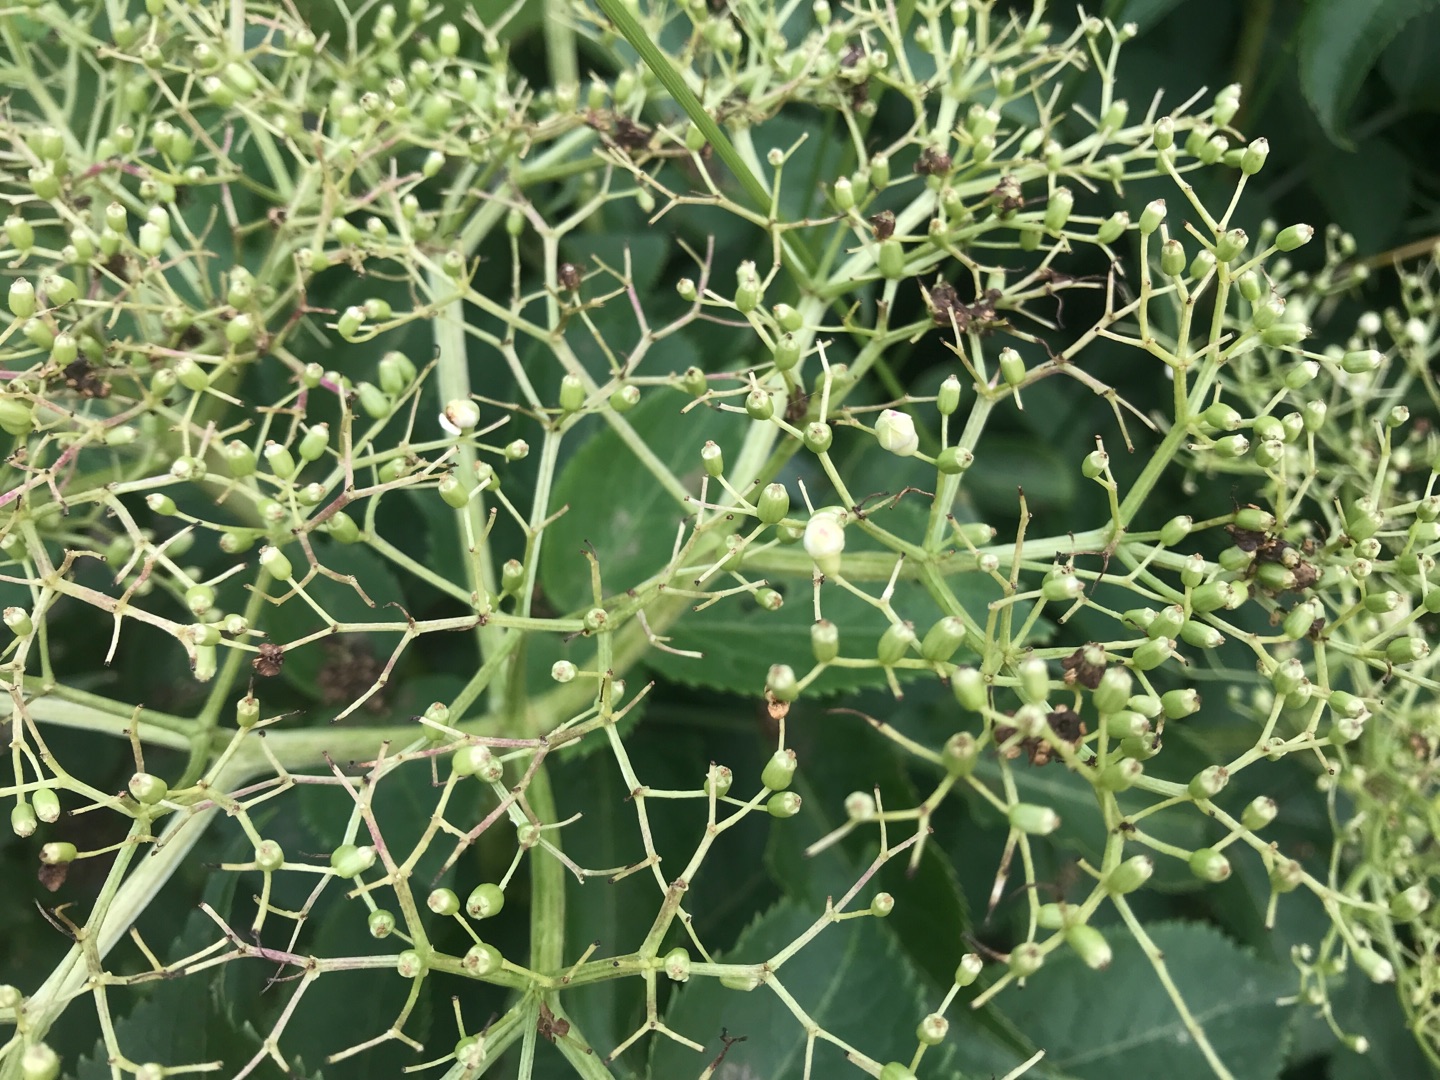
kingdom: Animalia
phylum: Arthropoda
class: Insecta
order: Diptera
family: Cecidomyiidae
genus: Placochela
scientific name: Placochela nigripes
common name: Hyldeblomstgalmyg
